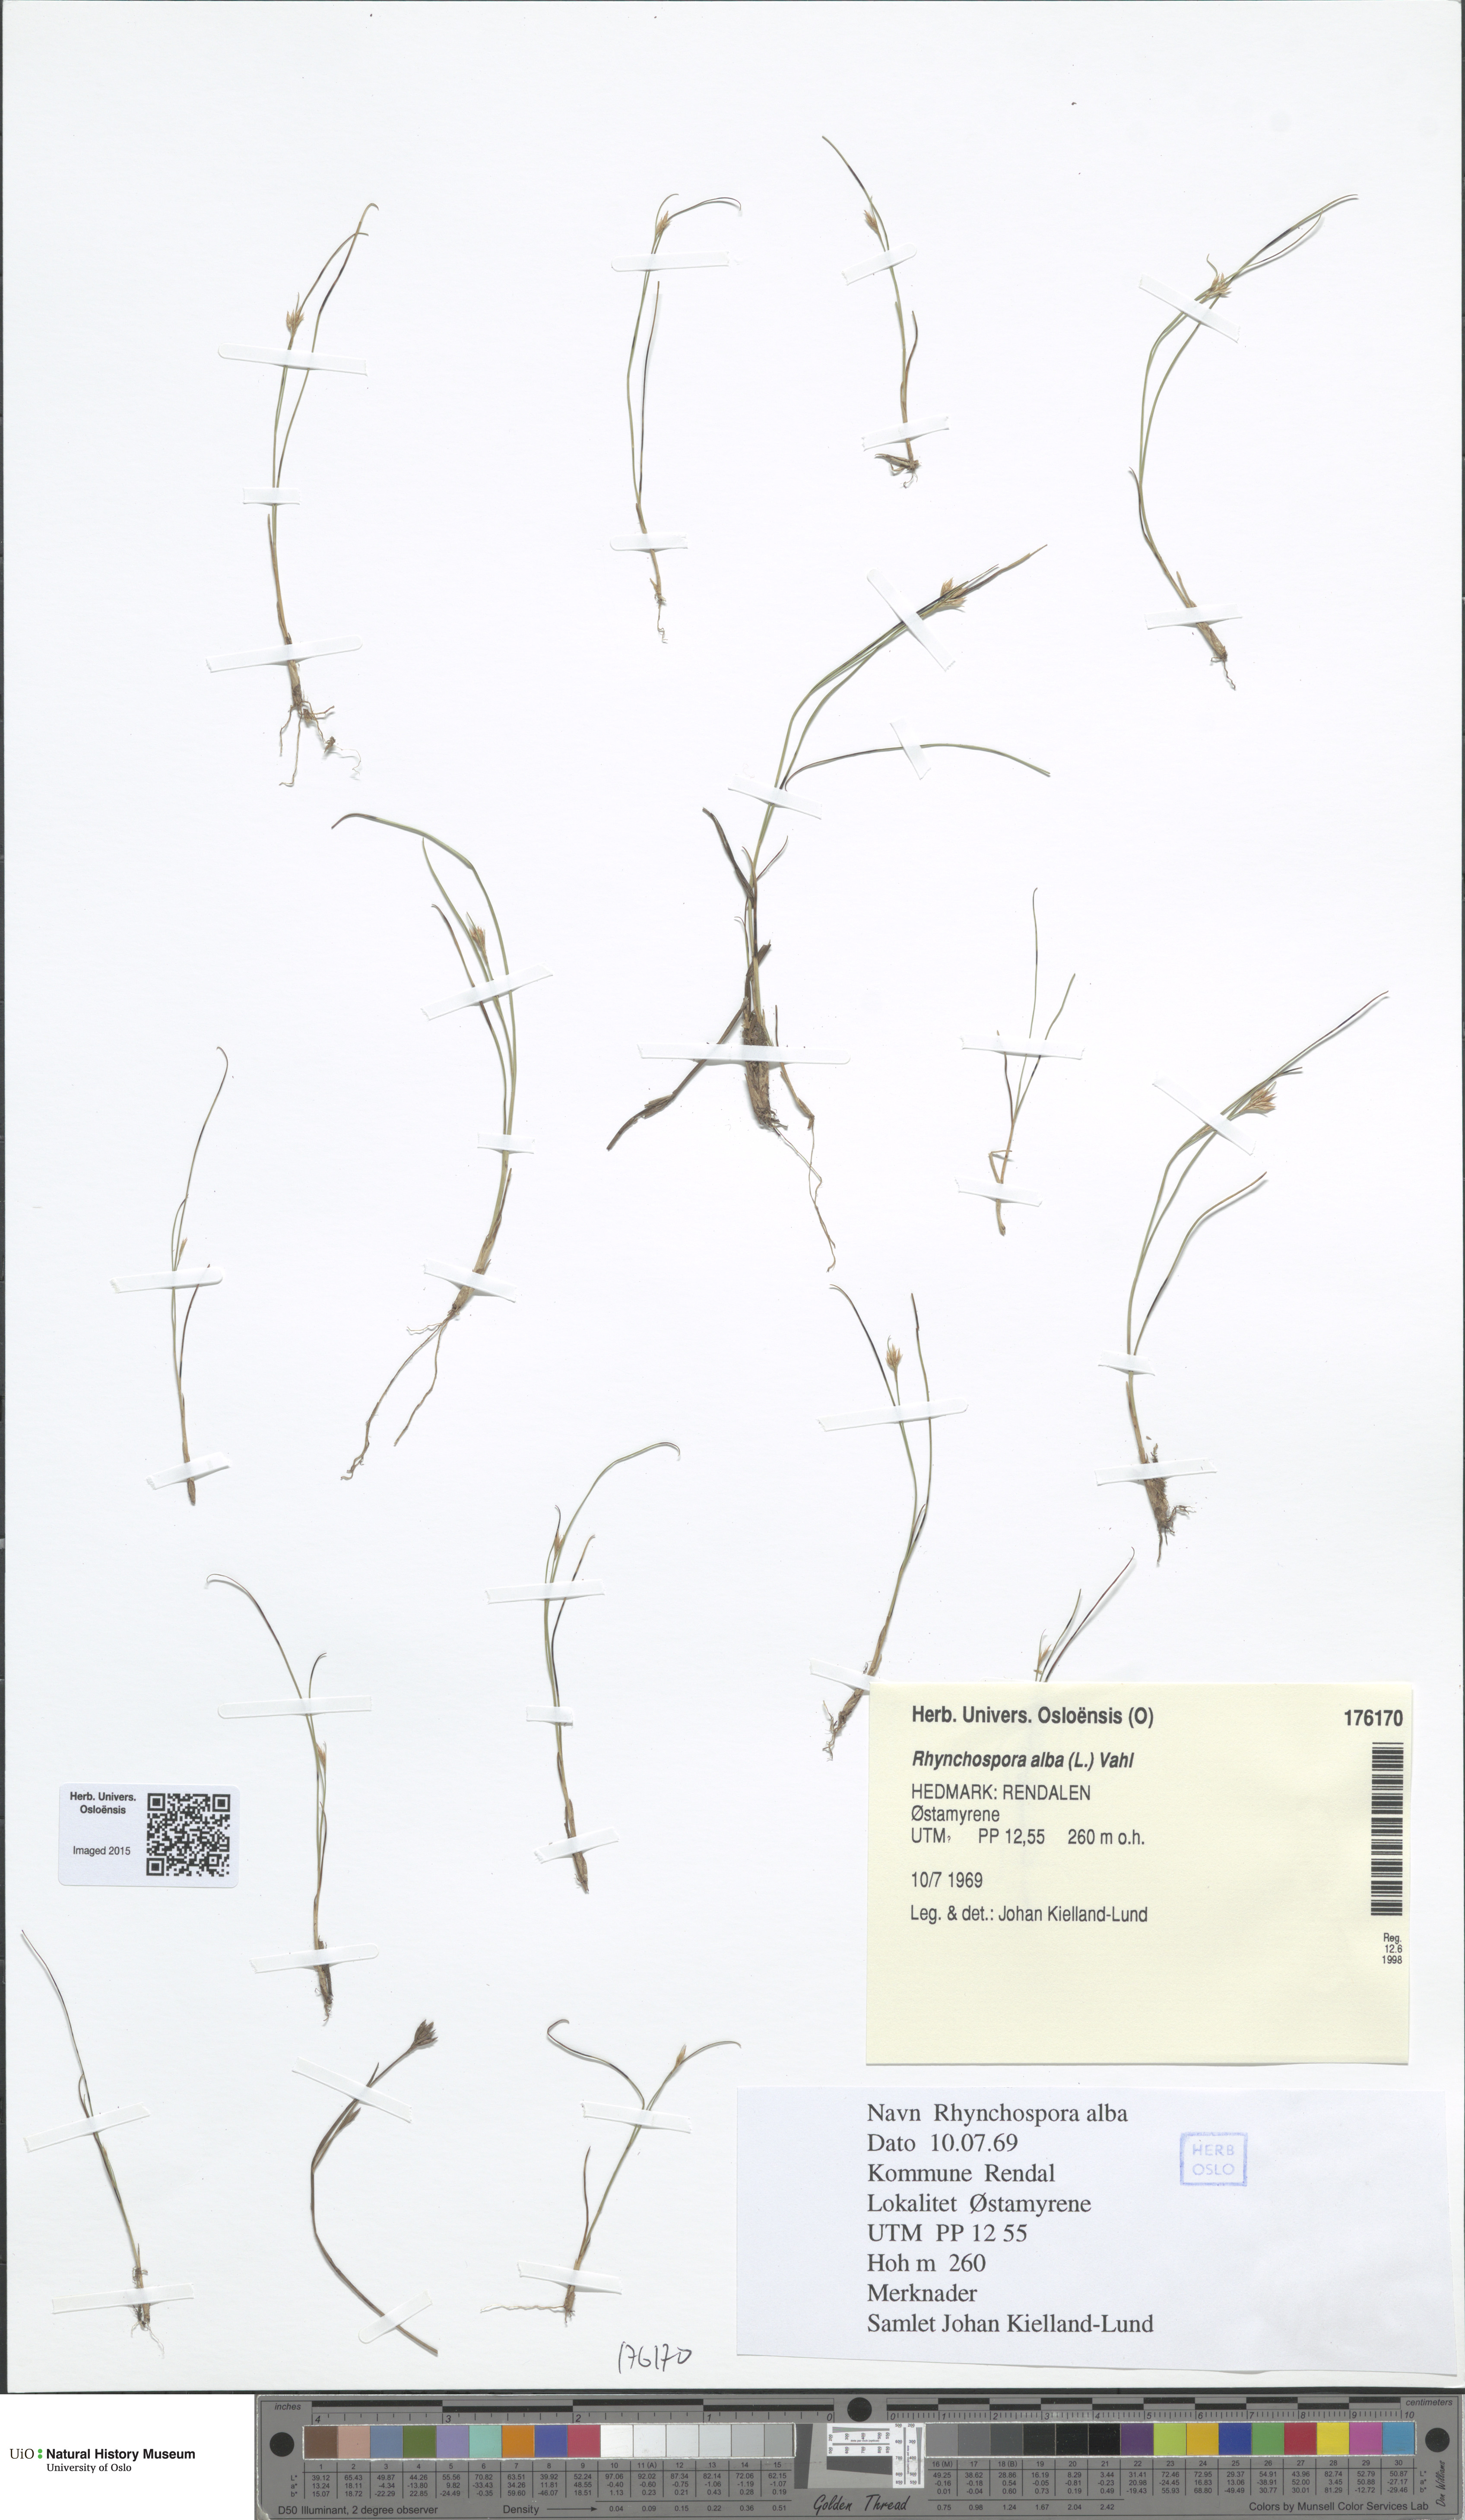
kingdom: Plantae
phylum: Tracheophyta
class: Liliopsida
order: Poales
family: Cyperaceae
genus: Rhynchospora
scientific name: Rhynchospora alba
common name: White beak-sedge
